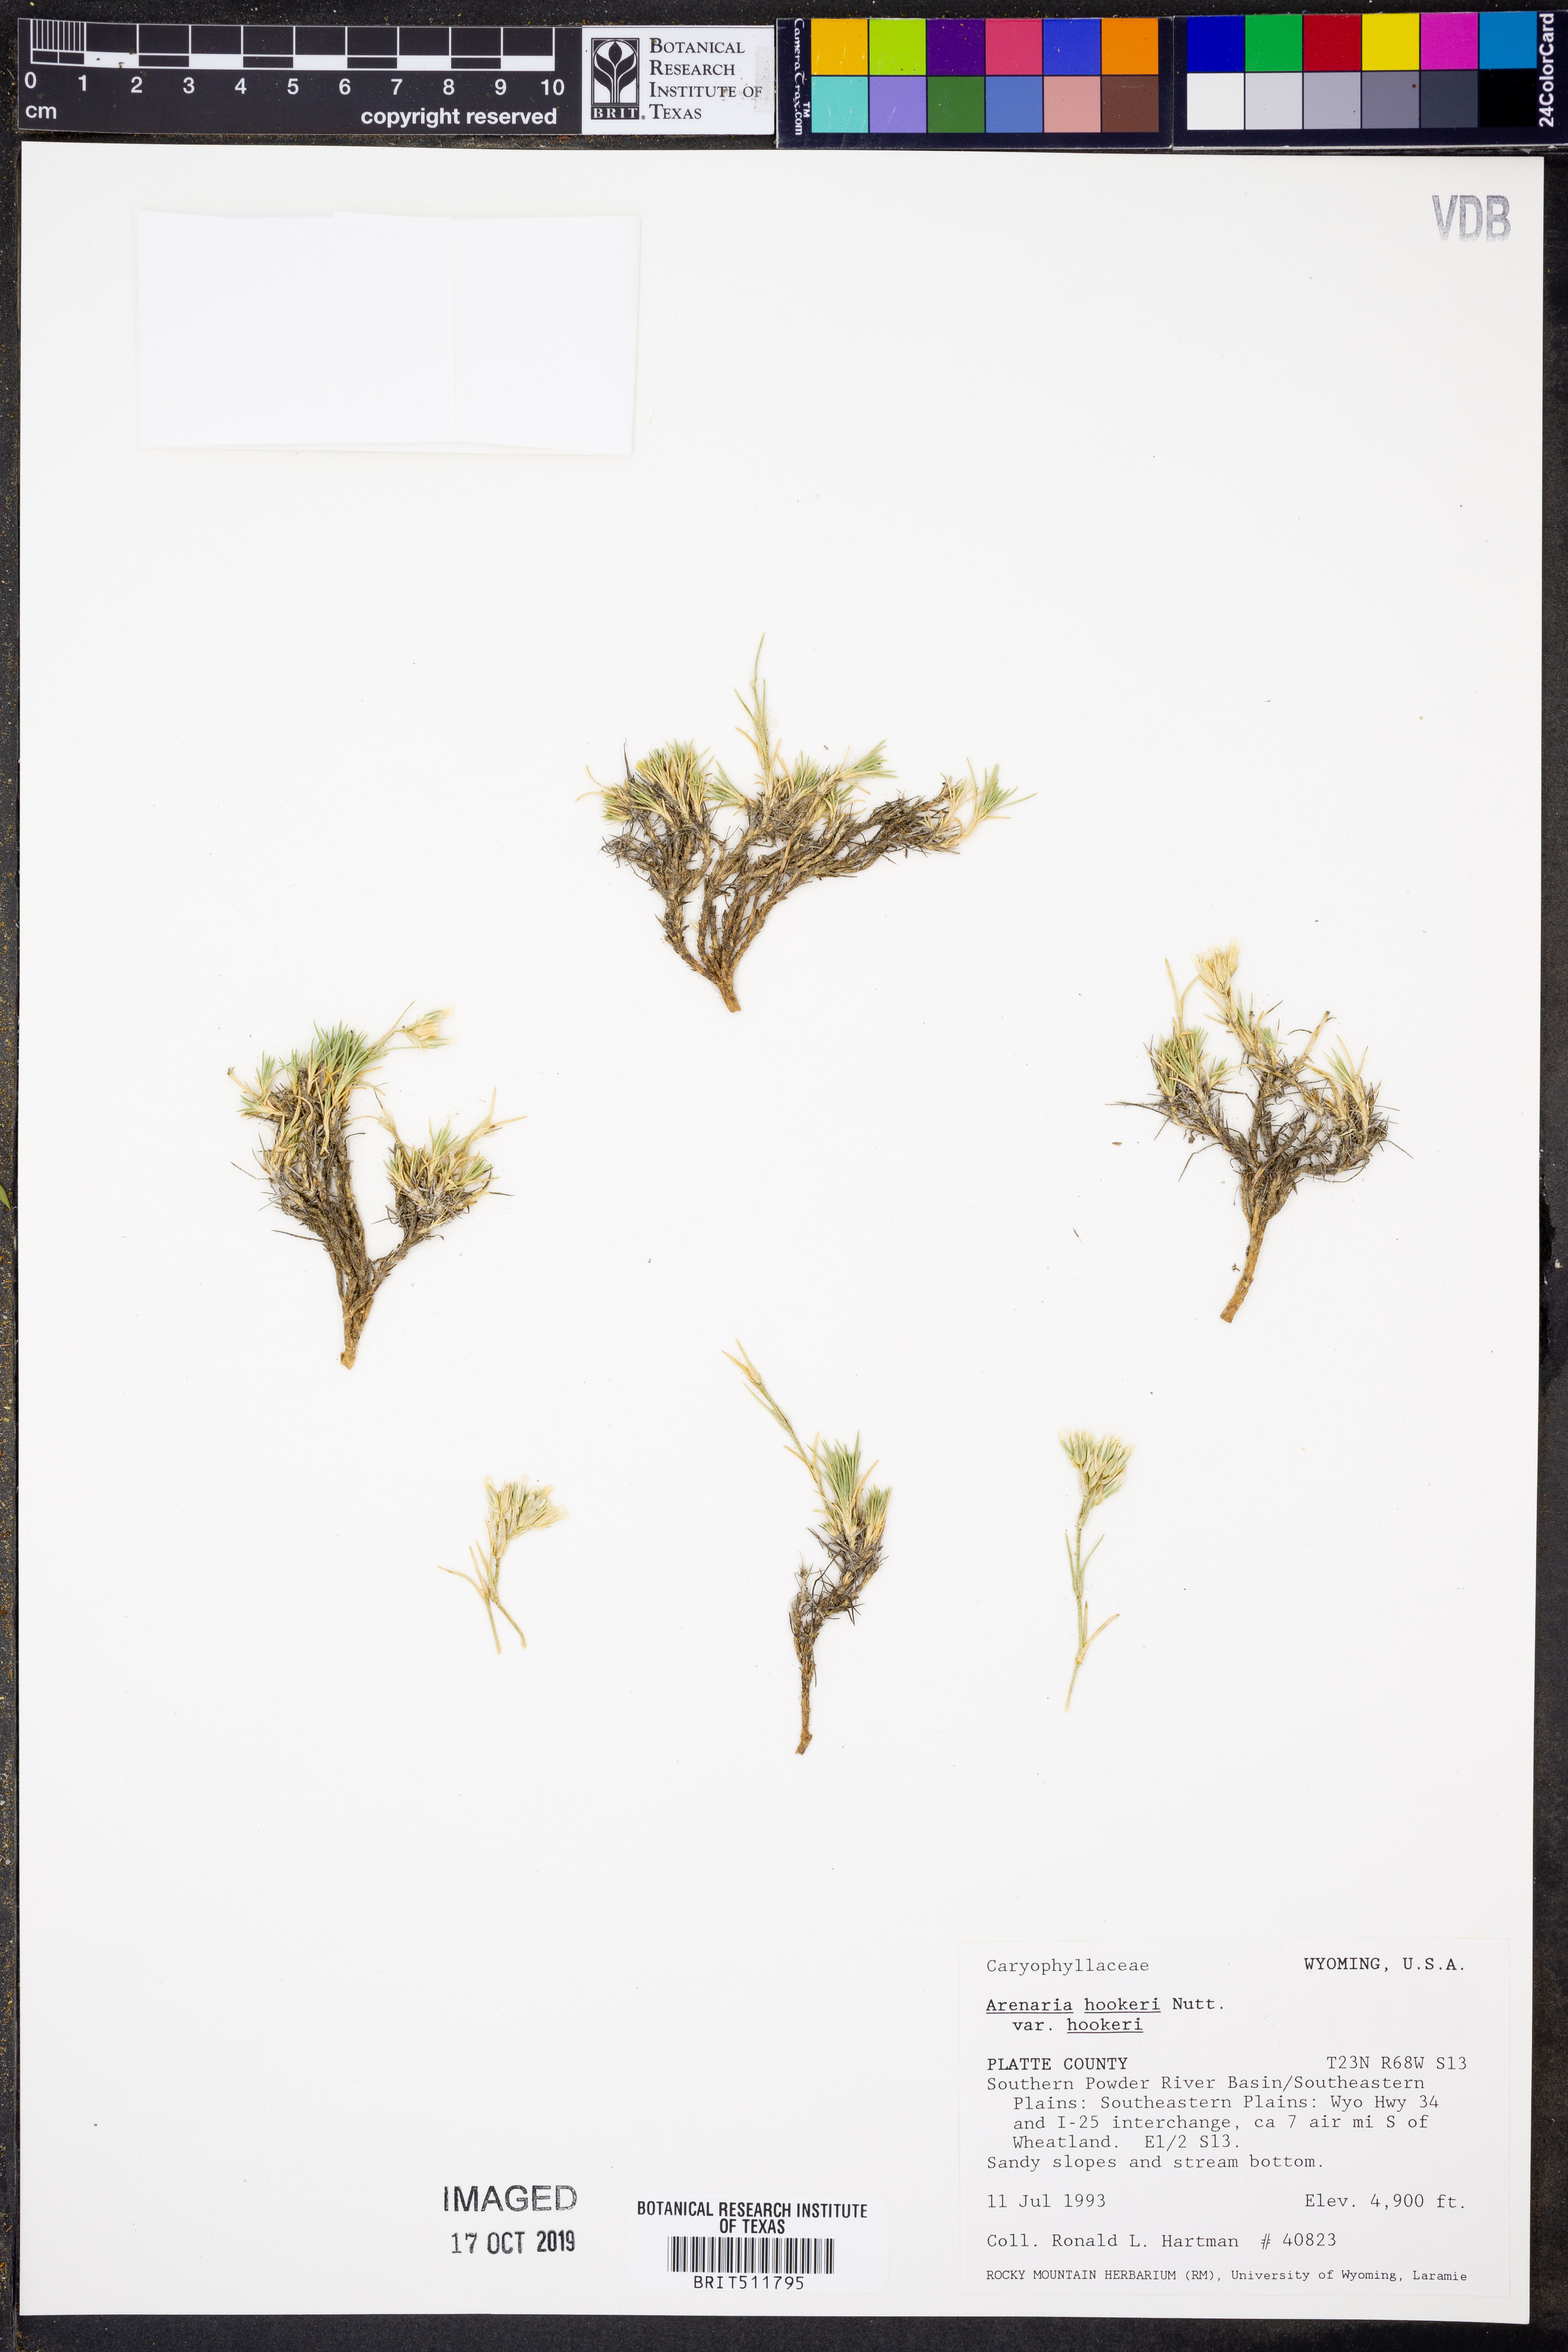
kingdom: Plantae
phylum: Tracheophyta
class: Magnoliopsida
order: Caryophyllales
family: Caryophyllaceae
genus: Eremogone
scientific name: Eremogone hookeri
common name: Hooker's sandwort
